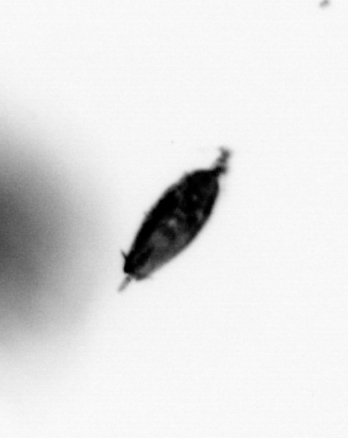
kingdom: Animalia
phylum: Annelida
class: Polychaeta
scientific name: Polychaeta
